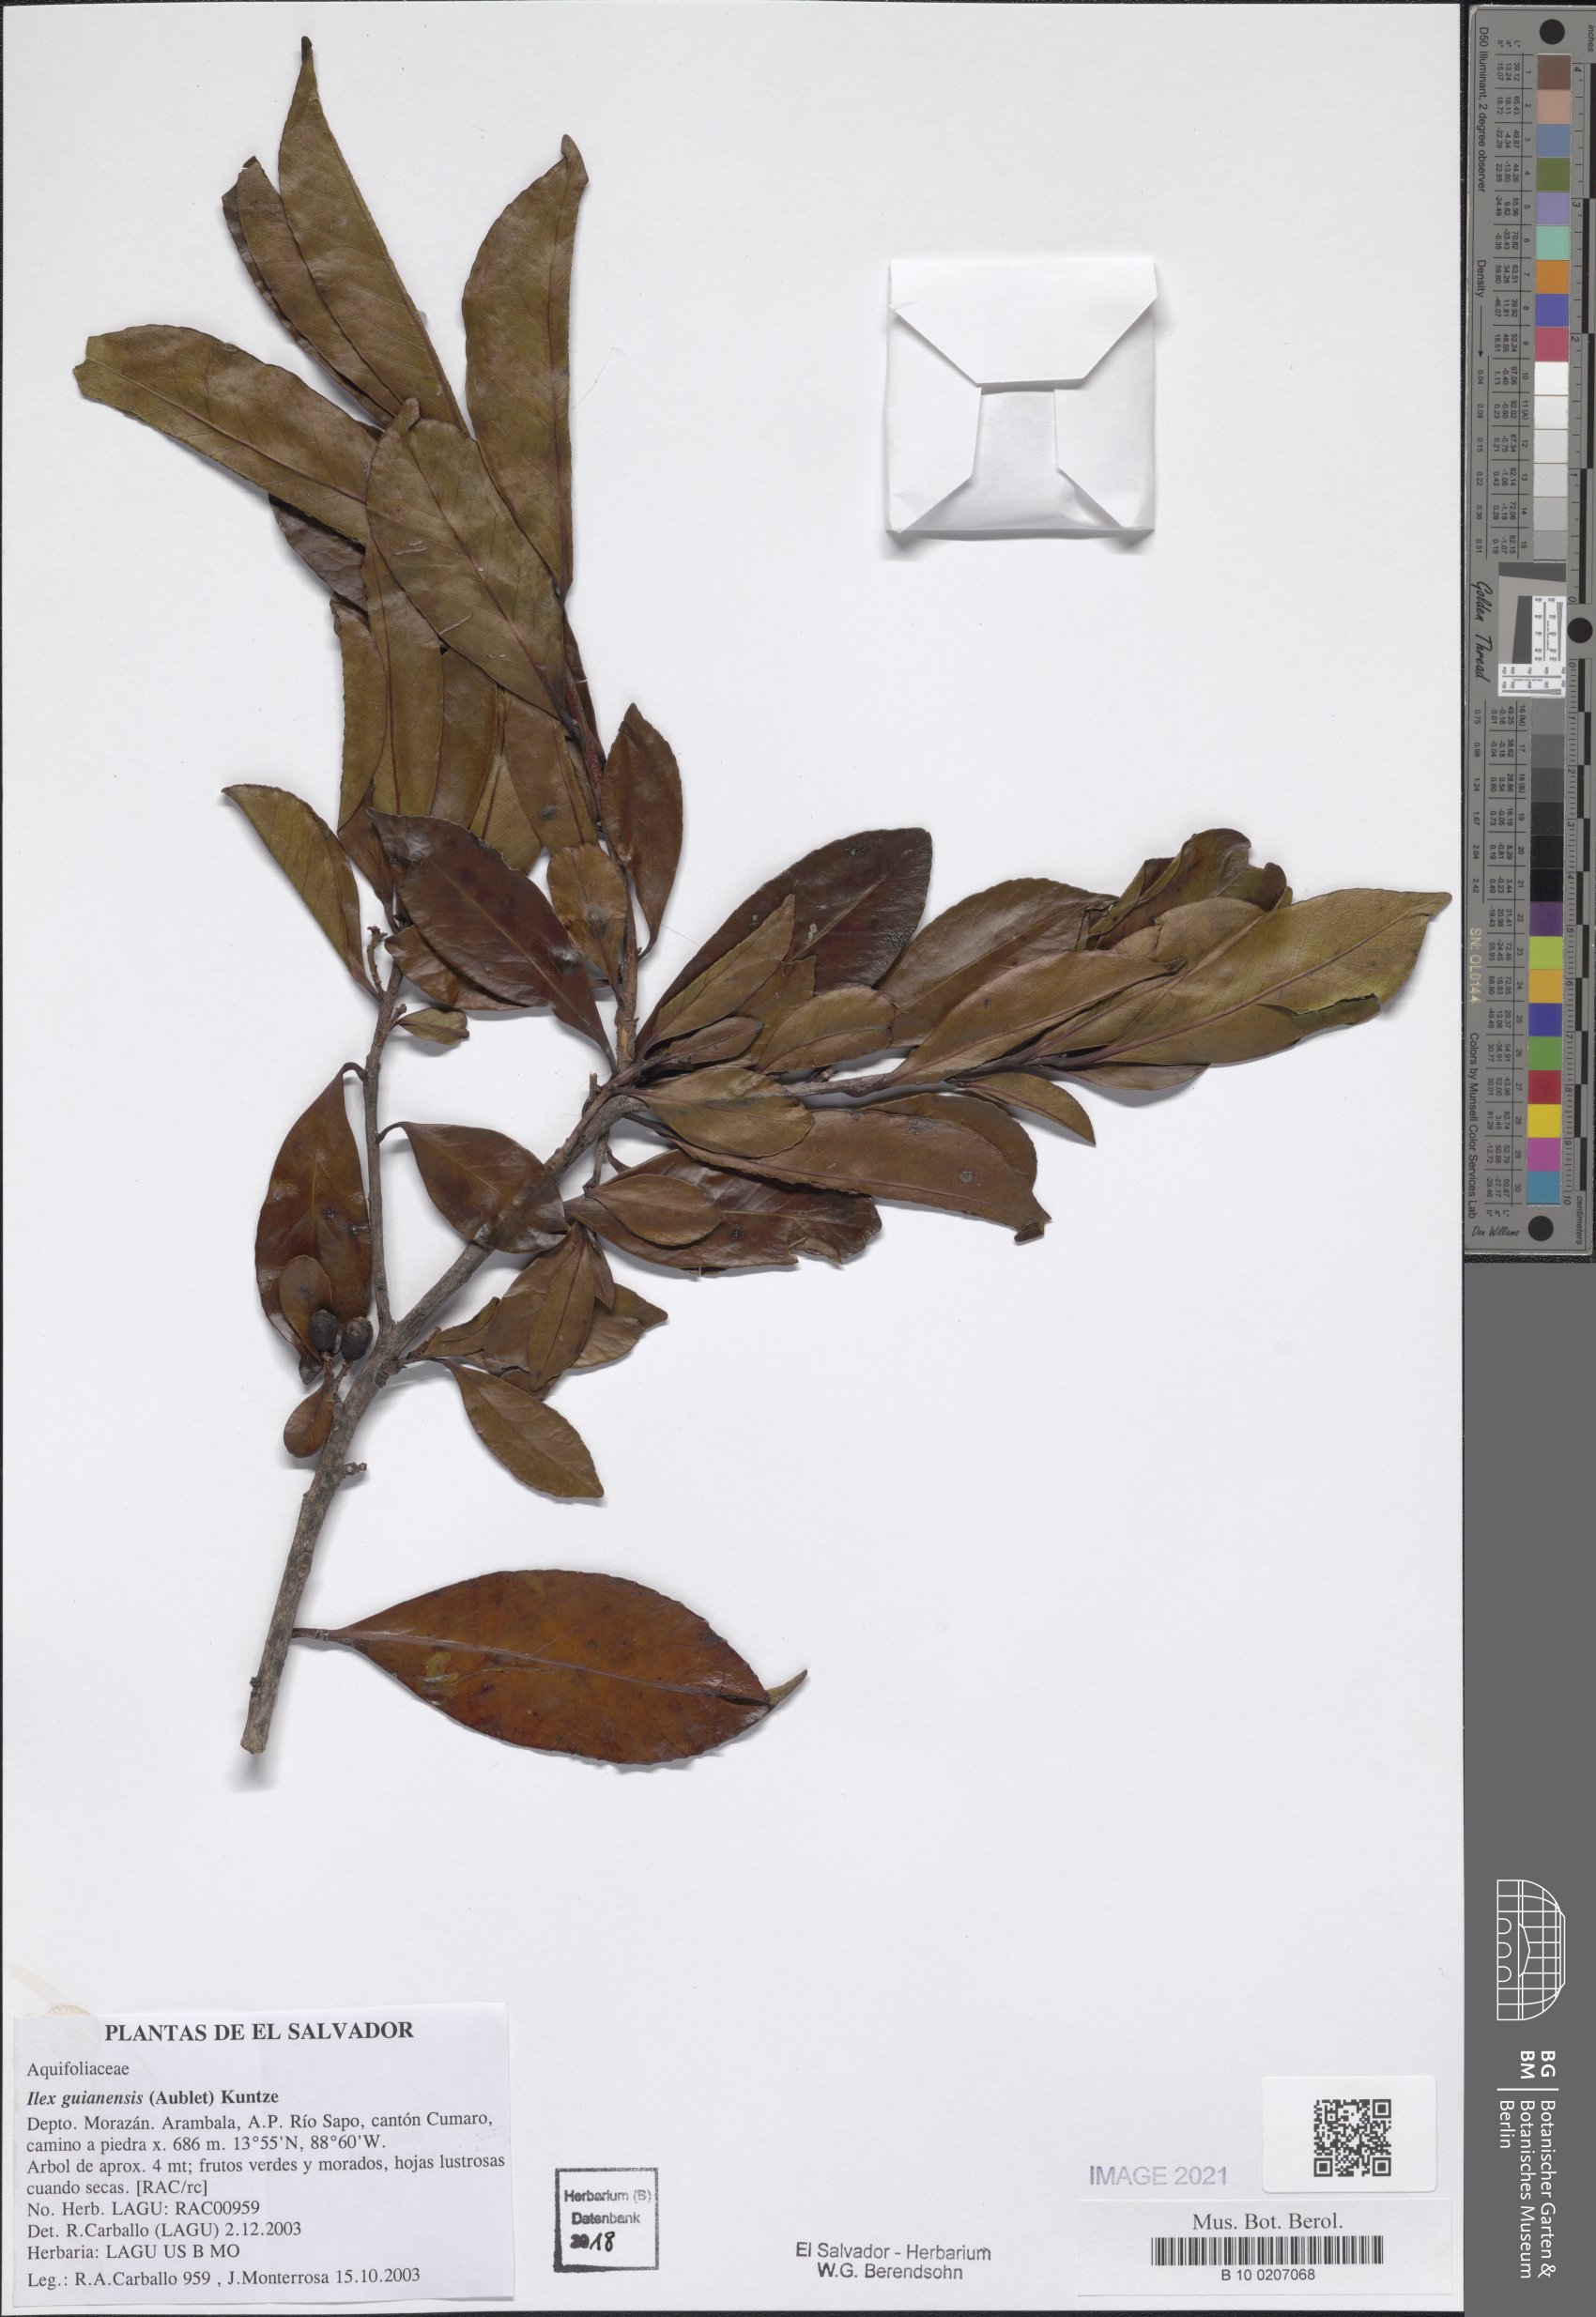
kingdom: Plantae
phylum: Tracheophyta
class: Magnoliopsida
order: Aquifoliales
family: Aquifoliaceae
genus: Ilex
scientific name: Ilex guianensis
